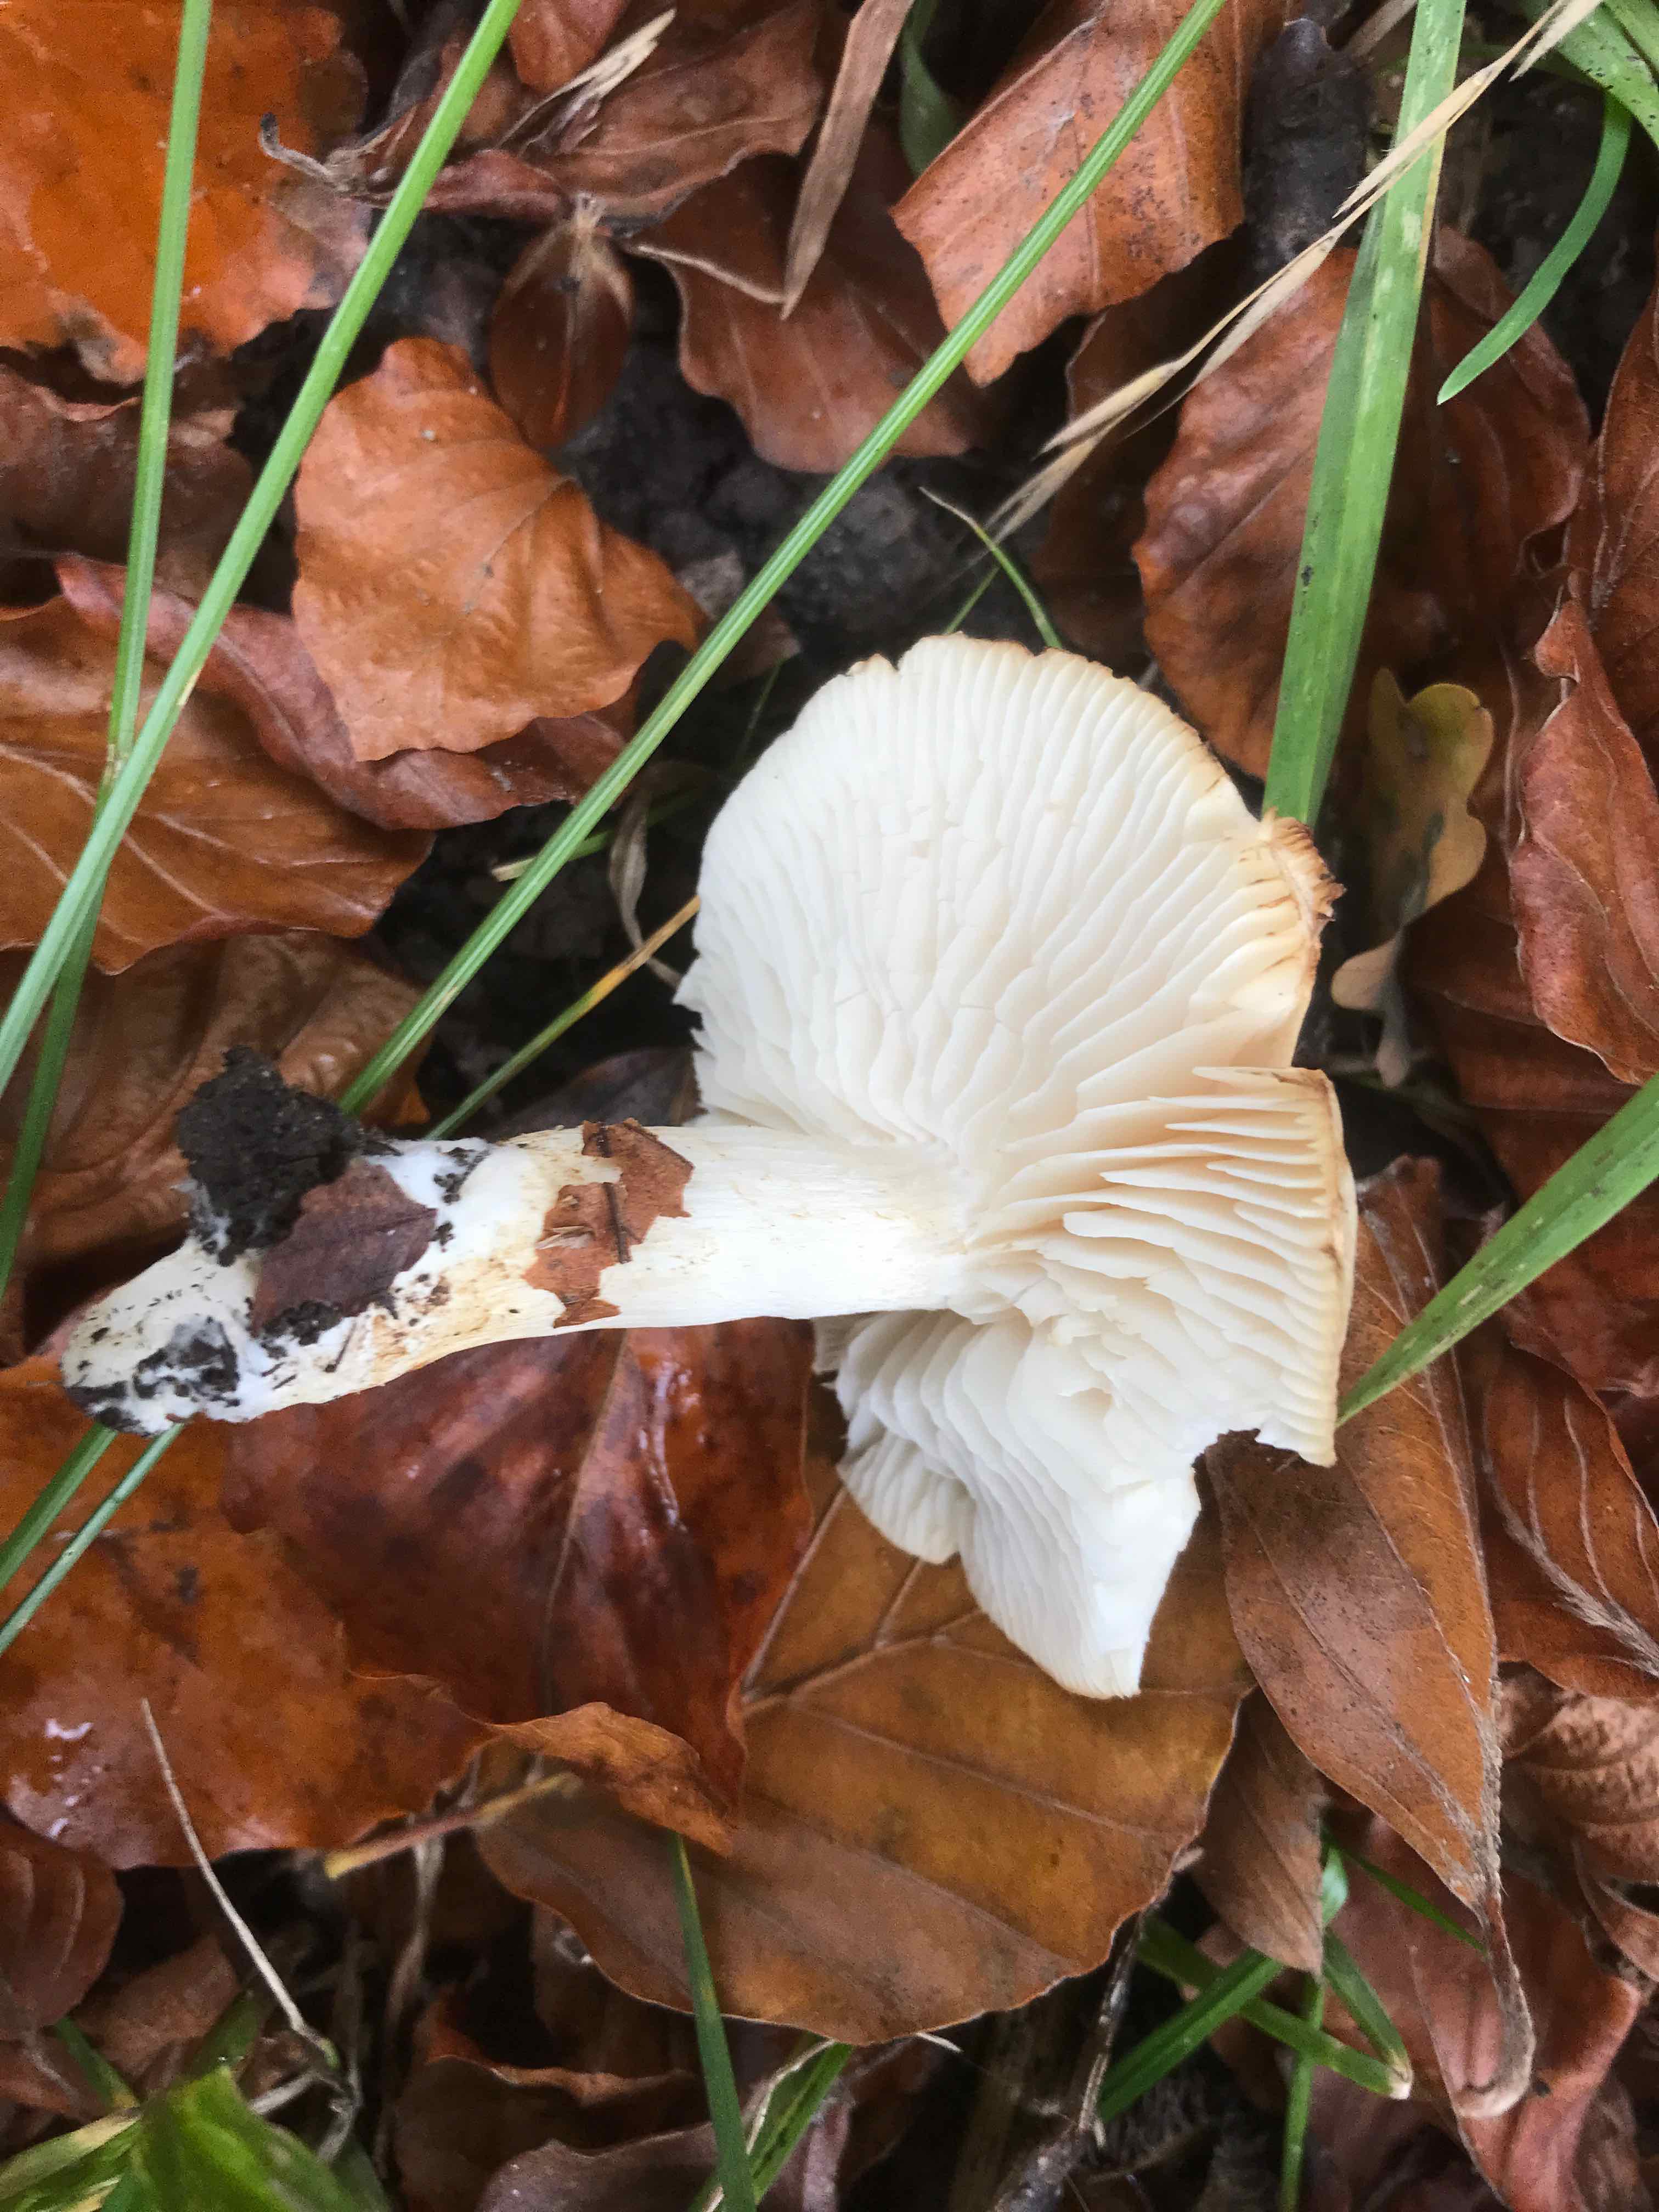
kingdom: Fungi
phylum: Basidiomycota
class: Agaricomycetes
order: Agaricales
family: Tricholomataceae
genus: Tricholoma
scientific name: Tricholoma lascivum
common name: stinkende ridderhat
